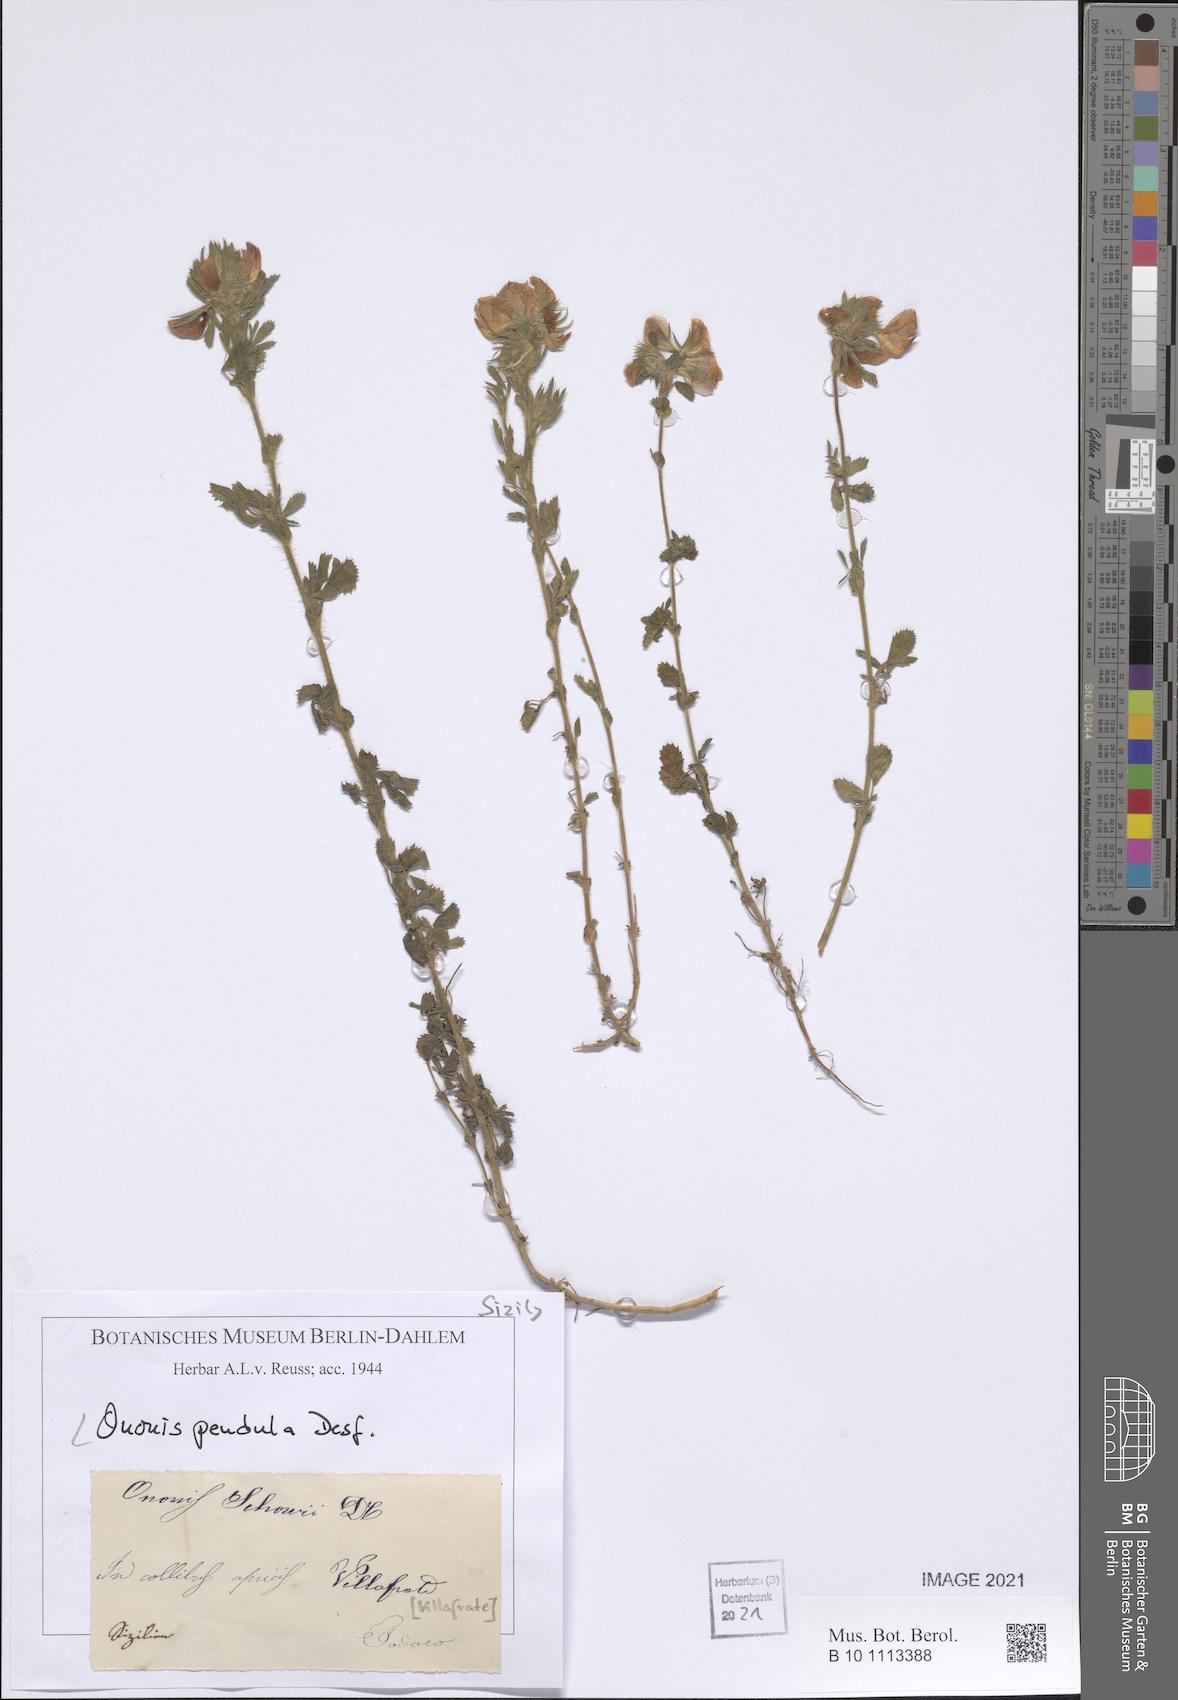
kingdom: Plantae
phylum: Tracheophyta
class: Magnoliopsida
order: Fabales
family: Fabaceae
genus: Ononis
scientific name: Ononis pendula
